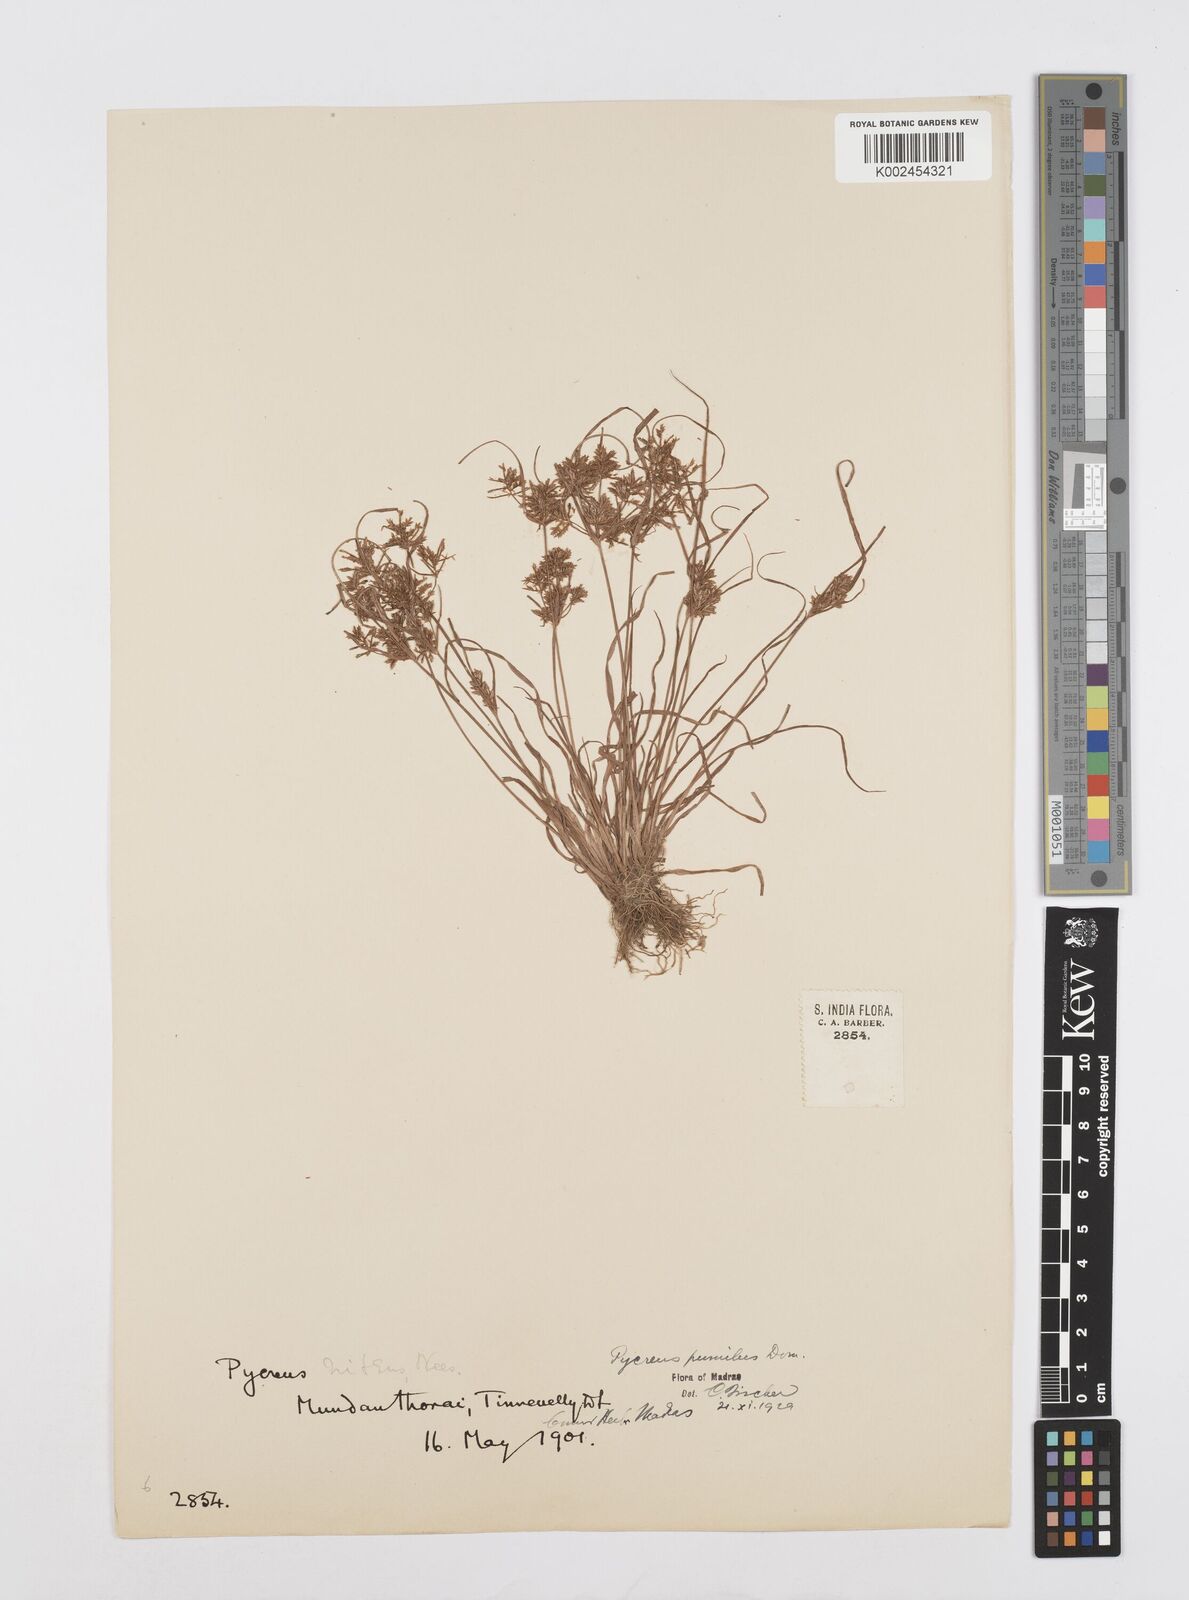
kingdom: Plantae
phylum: Tracheophyta
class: Liliopsida
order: Poales
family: Cyperaceae
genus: Cyperus
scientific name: Cyperus pumilus
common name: Low flatsedge
